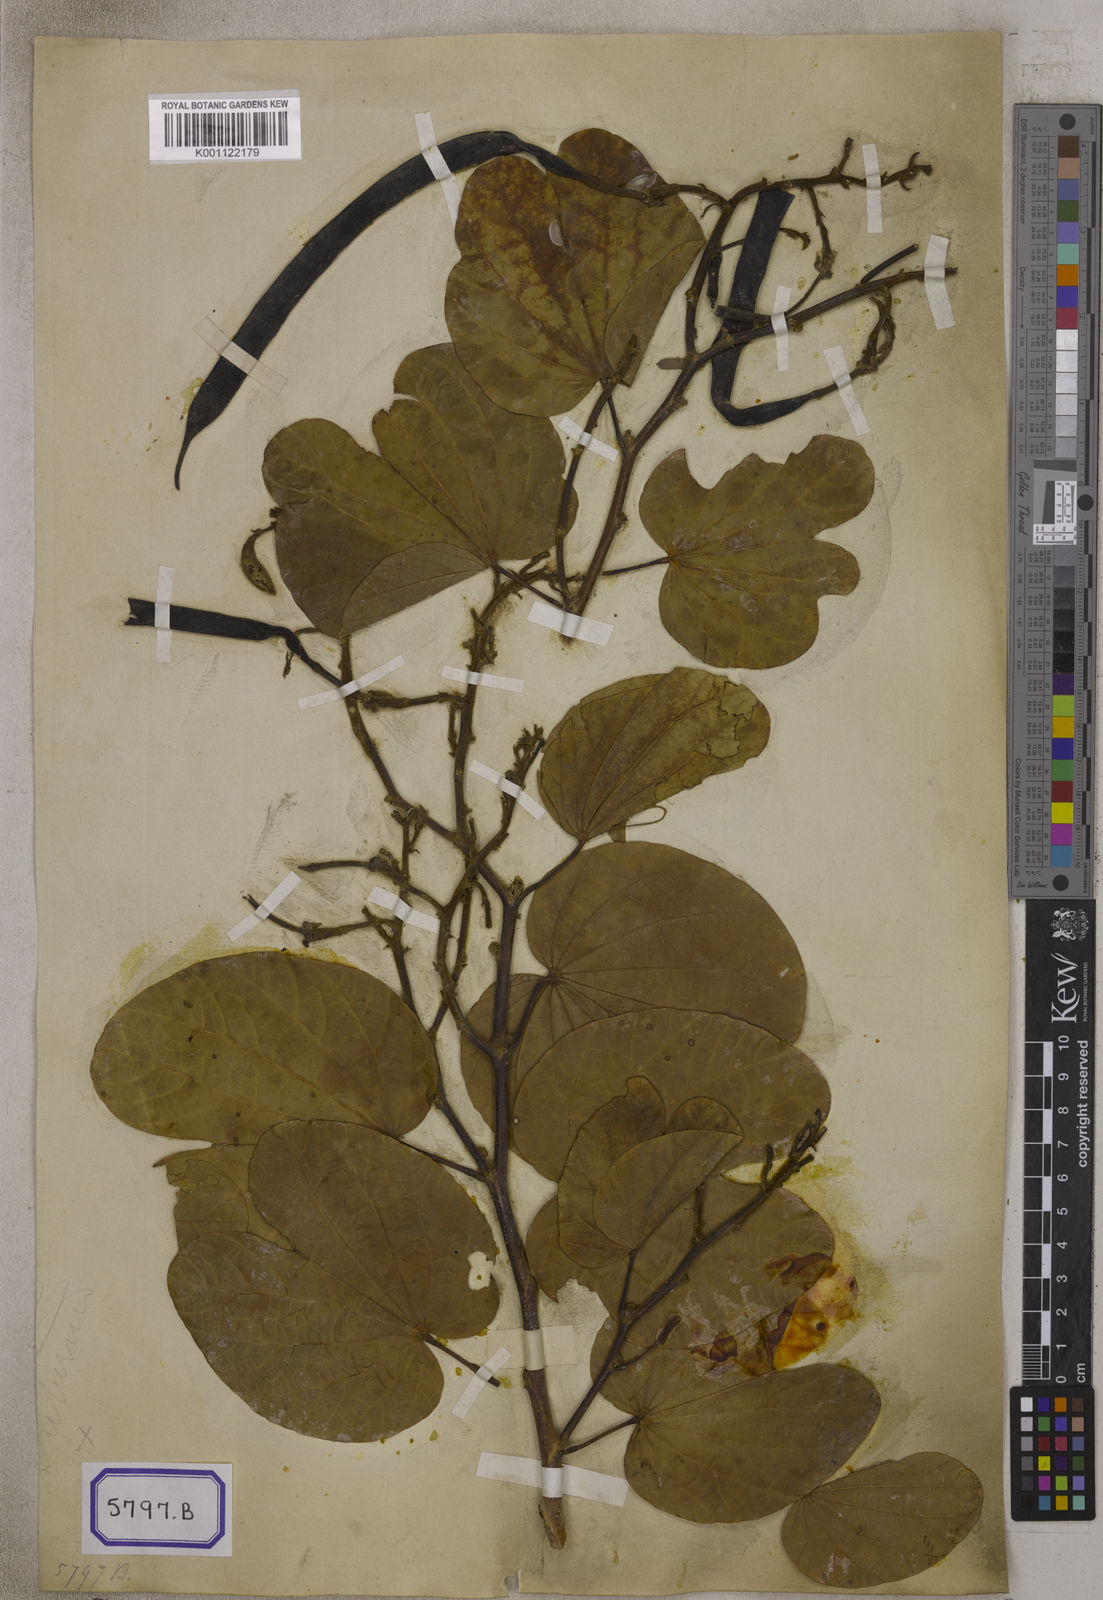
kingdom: Plantae
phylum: Tracheophyta
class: Magnoliopsida
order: Fabales
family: Fabaceae
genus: Bauhinia
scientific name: Bauhinia
